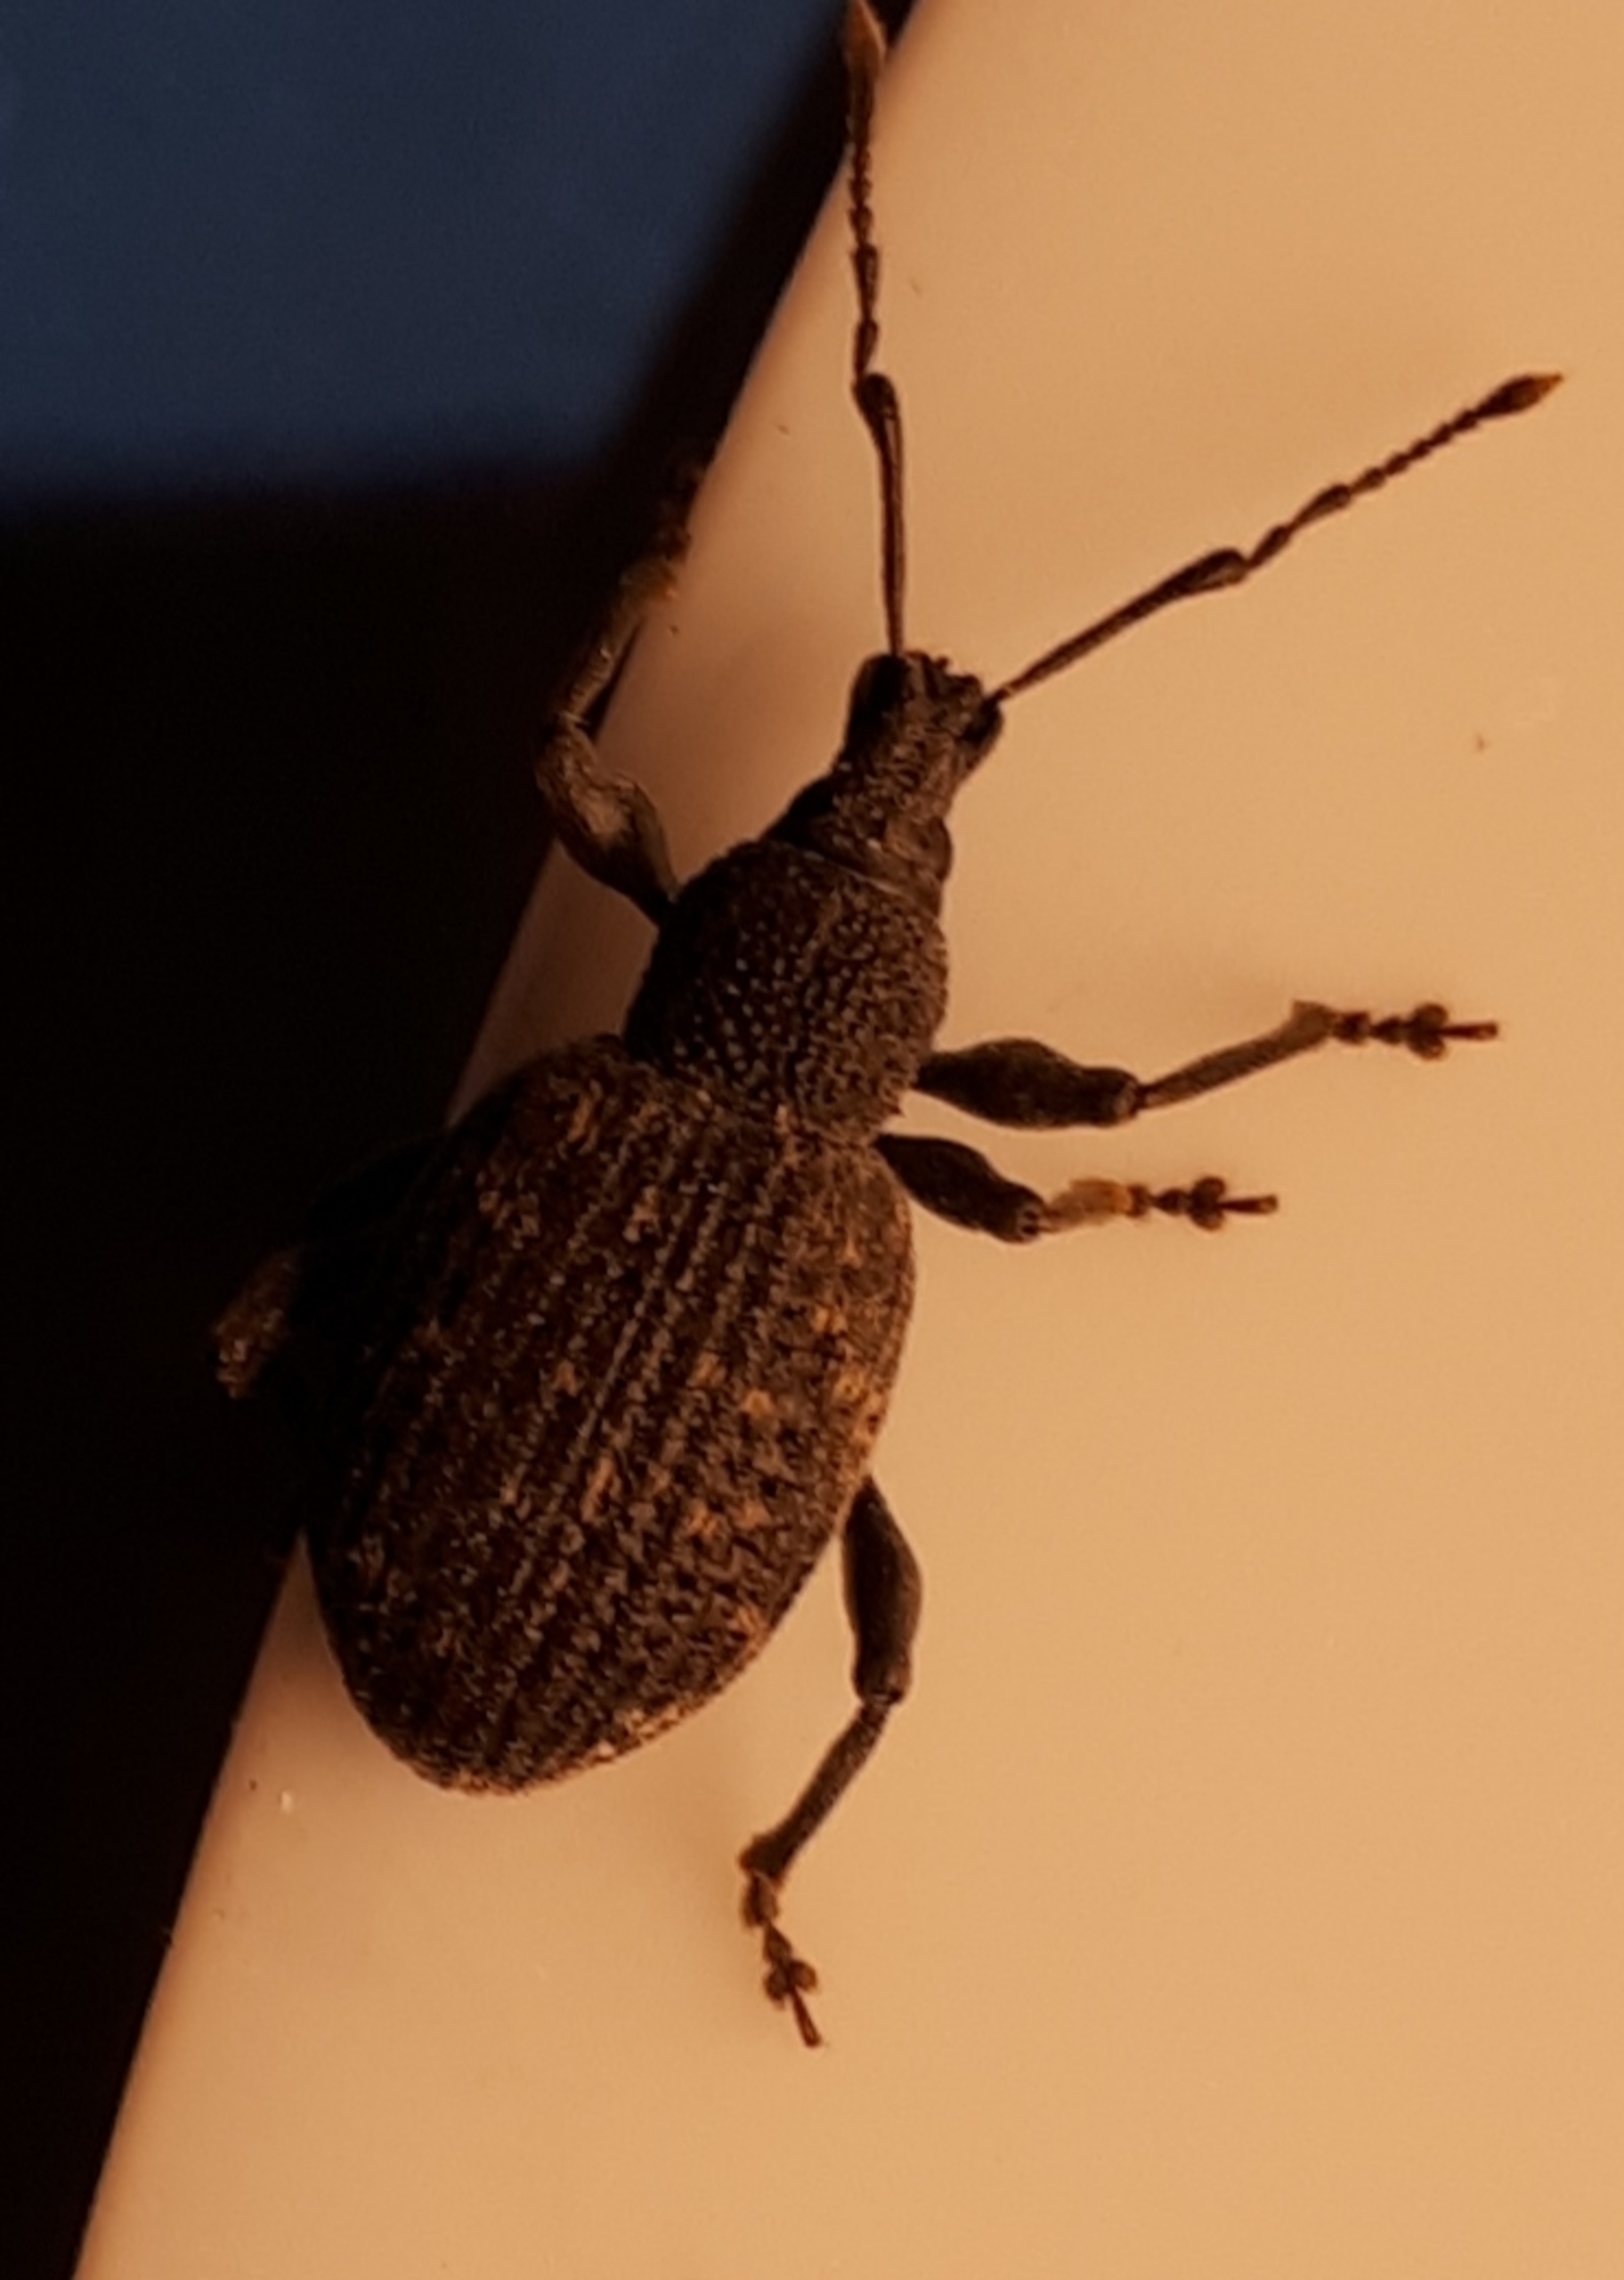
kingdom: Animalia
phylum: Arthropoda
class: Insecta
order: Coleoptera
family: Curculionidae
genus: Otiorhynchus
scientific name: Otiorhynchus sulcatus
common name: Væksthussnudebille
